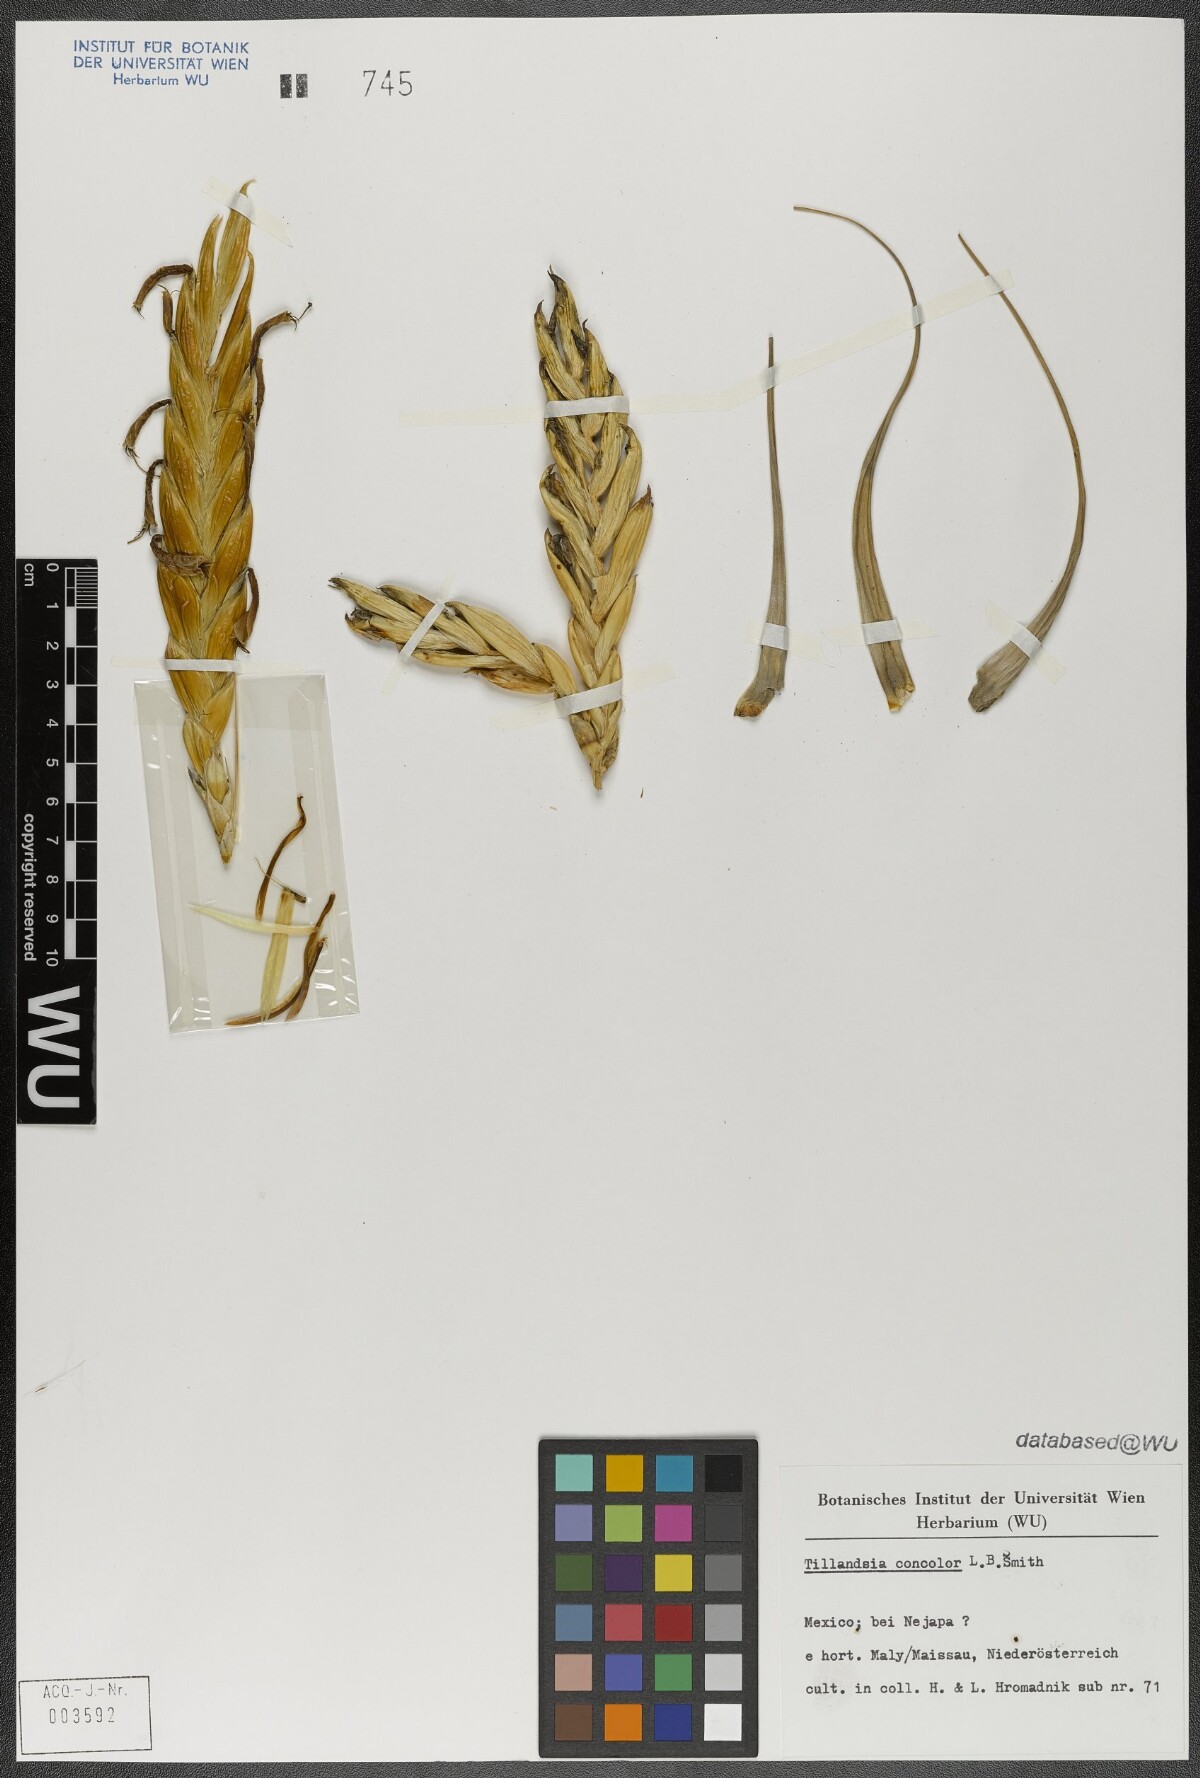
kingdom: Plantae
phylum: Tracheophyta
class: Liliopsida
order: Poales
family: Bromeliaceae
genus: Tillandsia
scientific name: Tillandsia concolor
